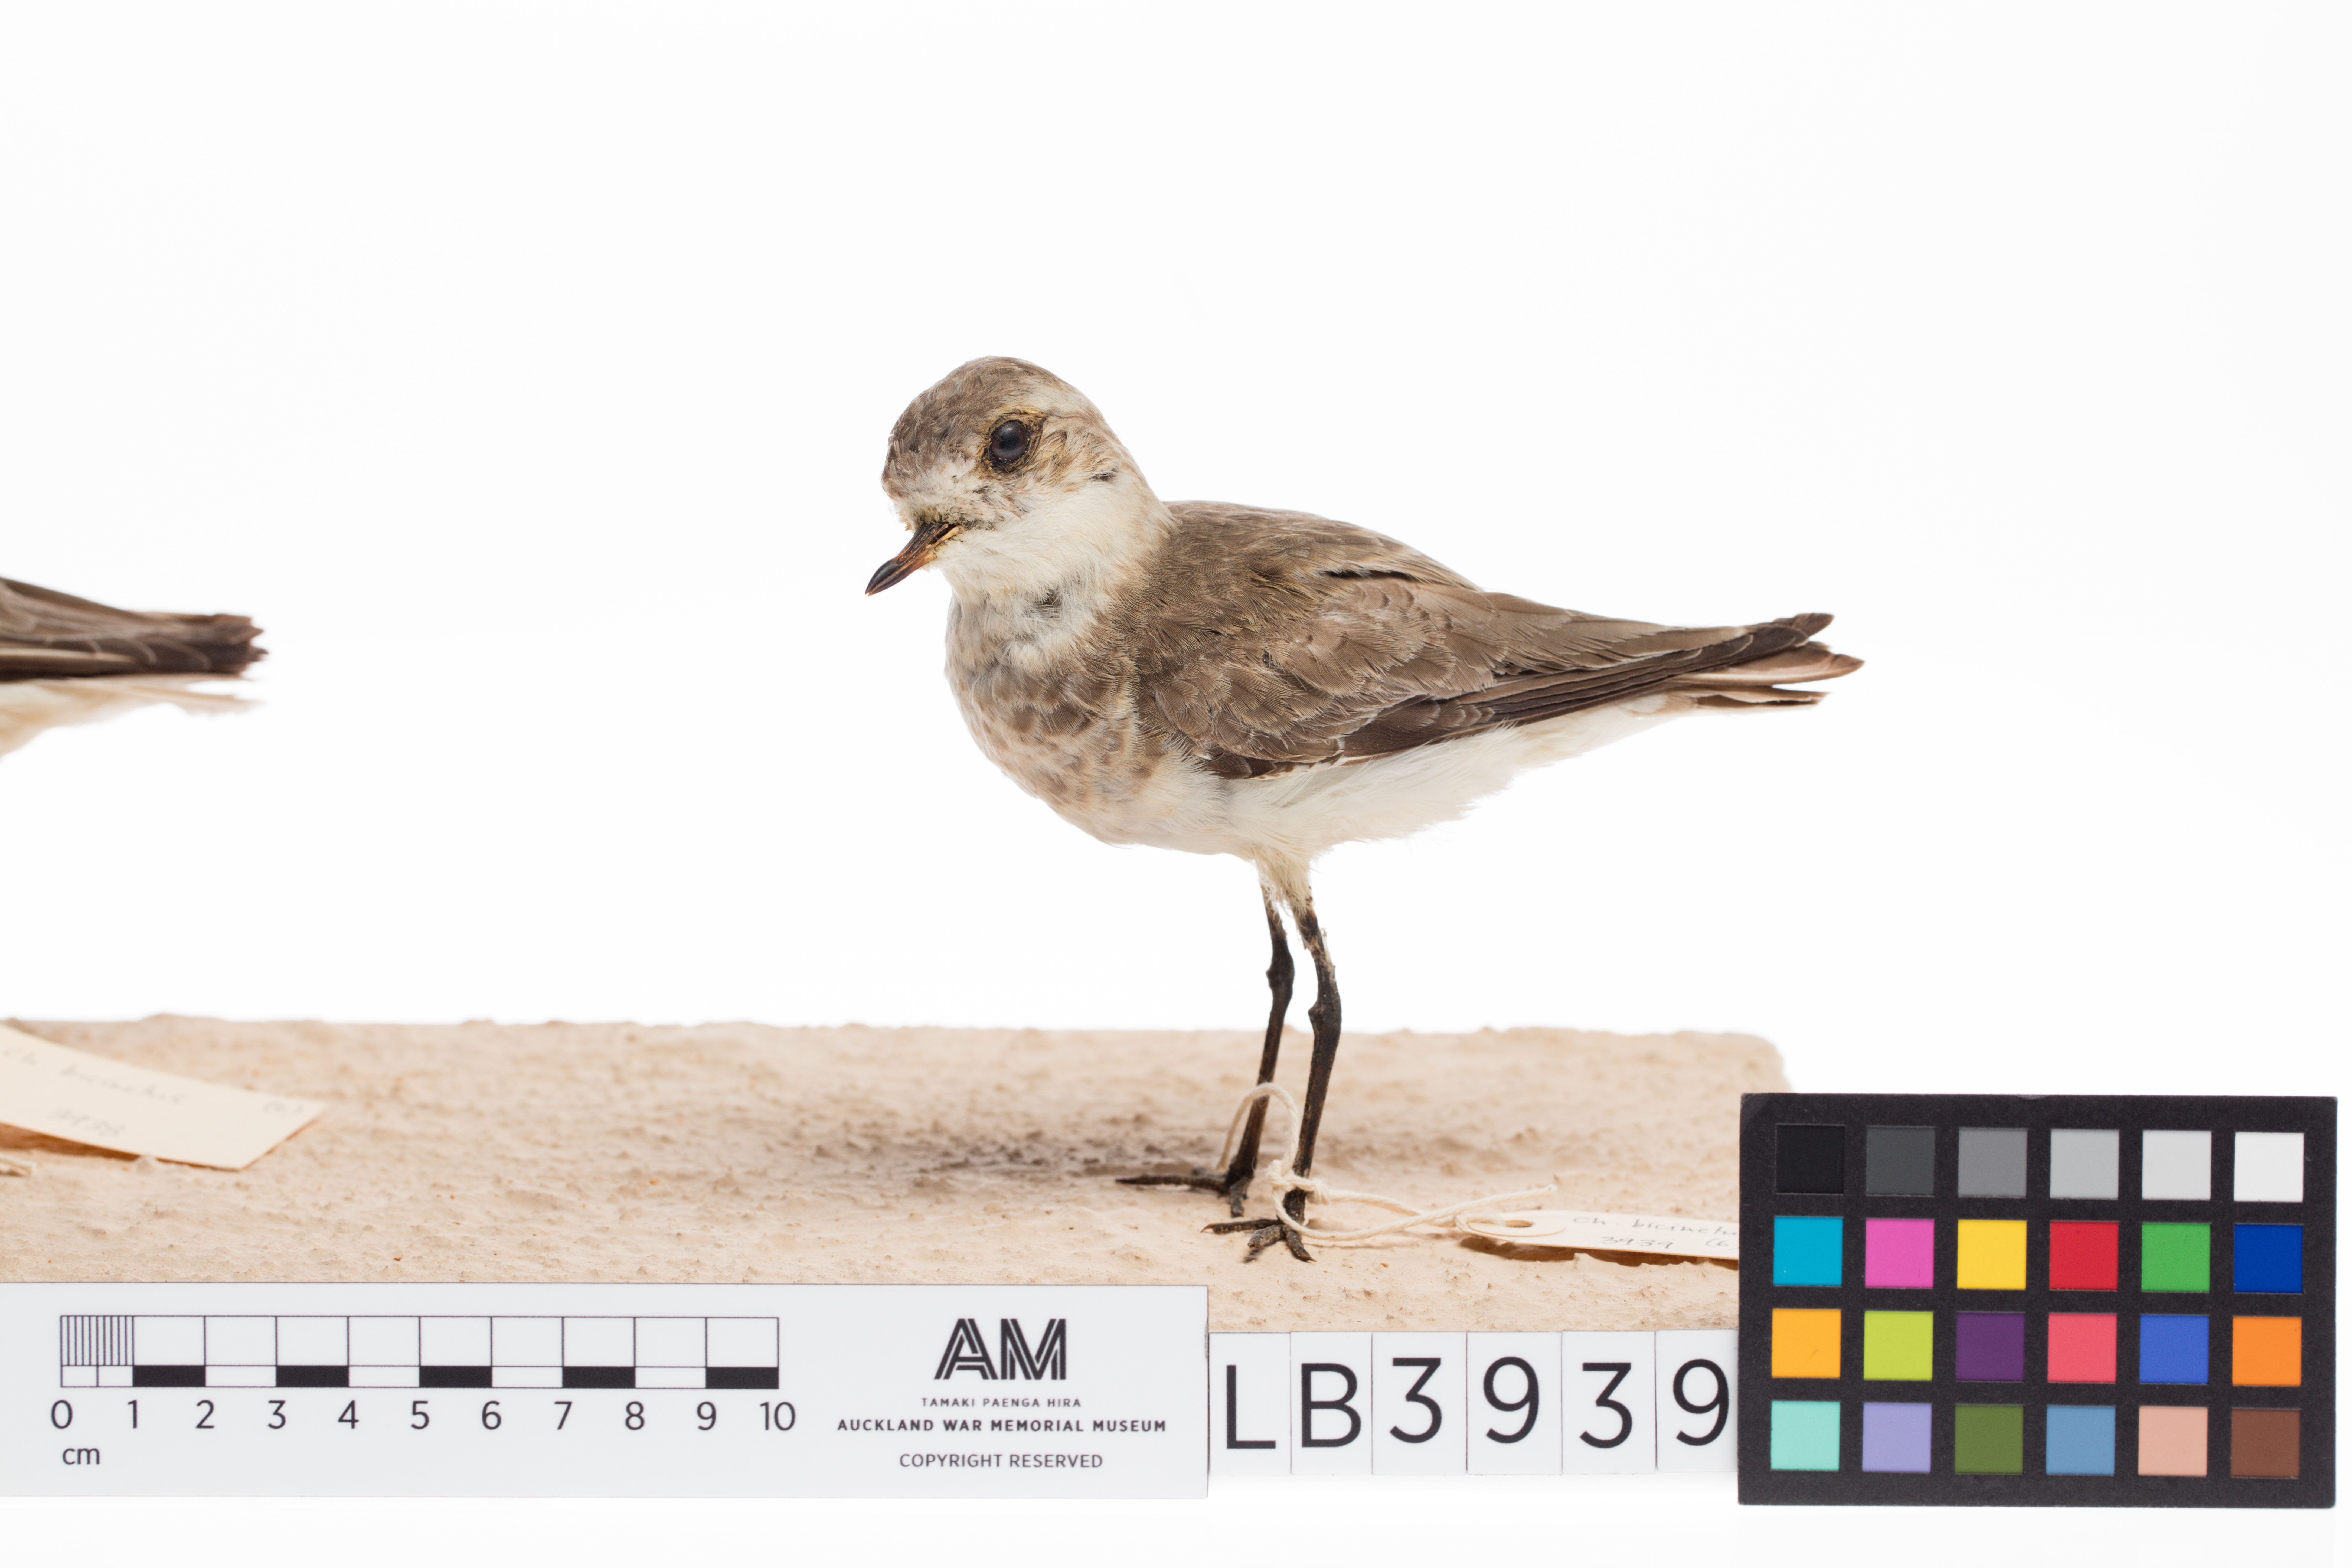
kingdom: Animalia
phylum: Chordata
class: Aves
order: Charadriiformes
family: Charadriidae
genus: Charadrius
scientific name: Charadrius bicinctus
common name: Double-banded plover
